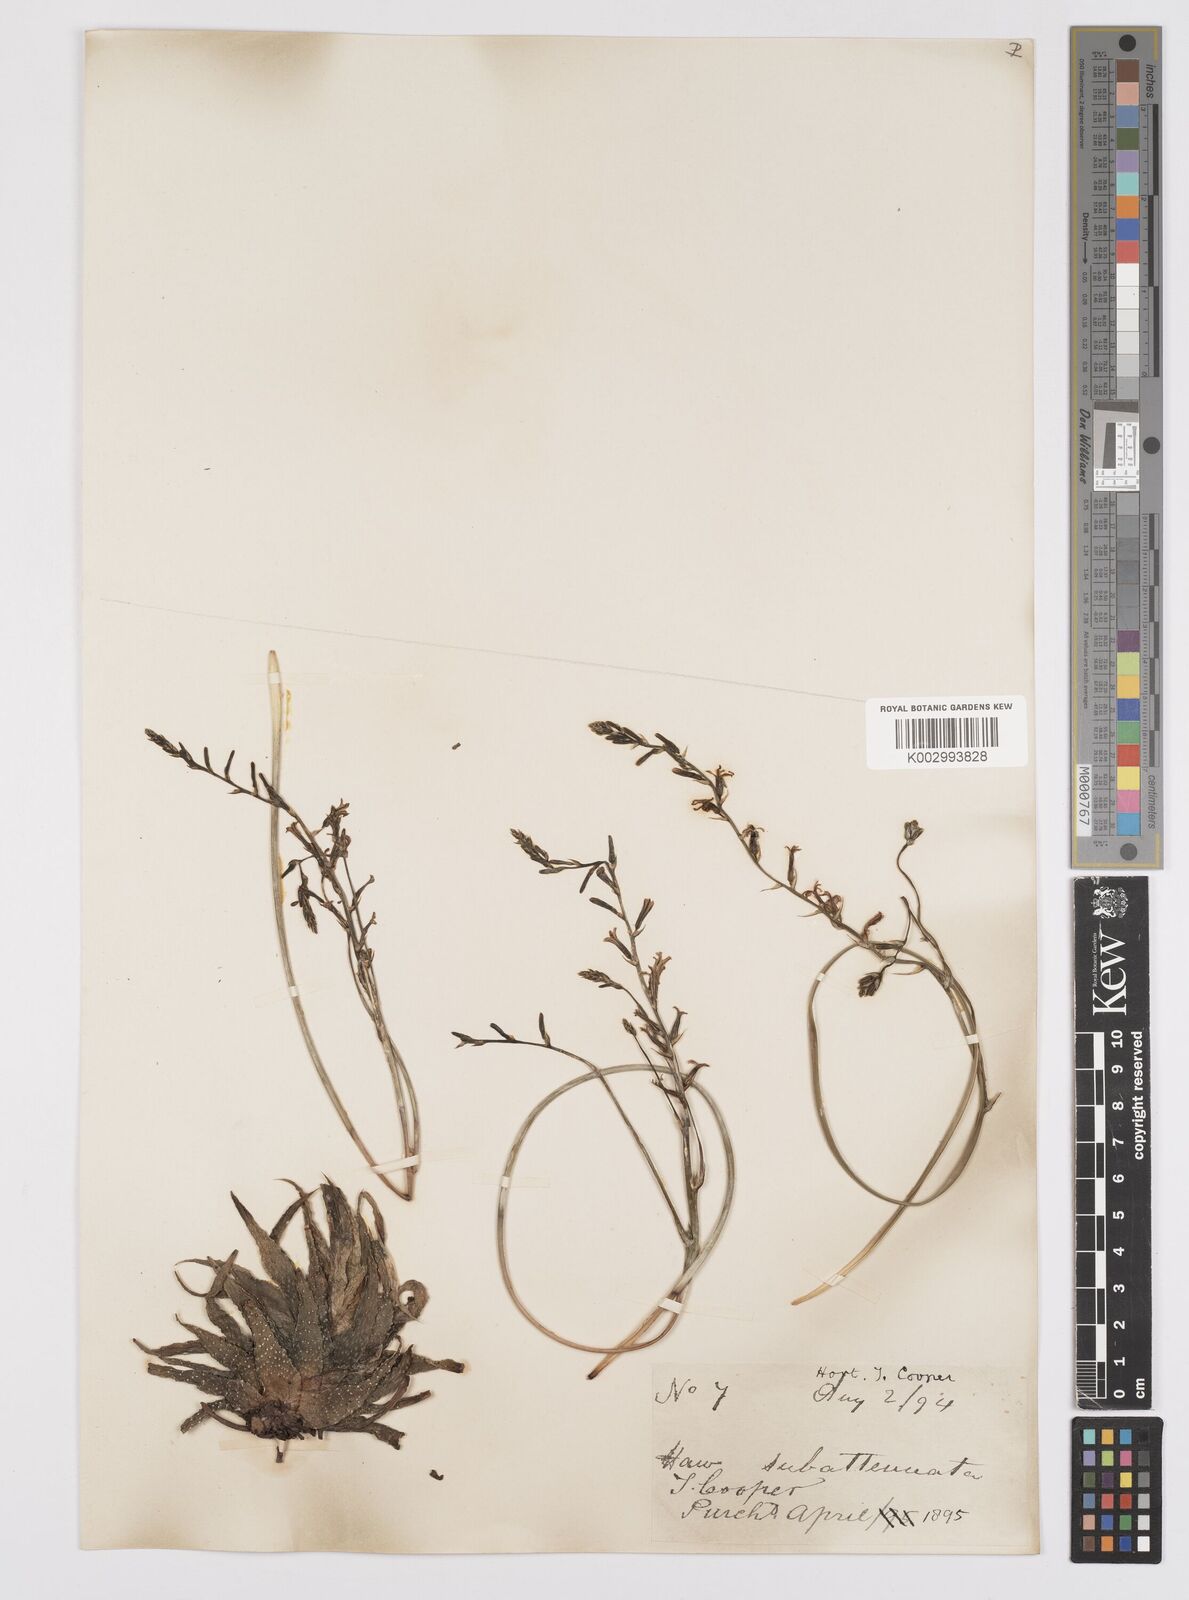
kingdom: Plantae
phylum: Tracheophyta
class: Liliopsida
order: Asparagales
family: Asphodelaceae
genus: Haworthiopsis
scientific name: Haworthiopsis attenuata
